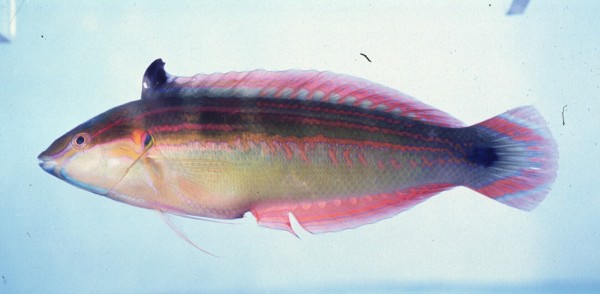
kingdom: Animalia
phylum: Chordata
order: Perciformes
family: Labridae
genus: Coris
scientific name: Coris caudimacula
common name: Spottail coris
